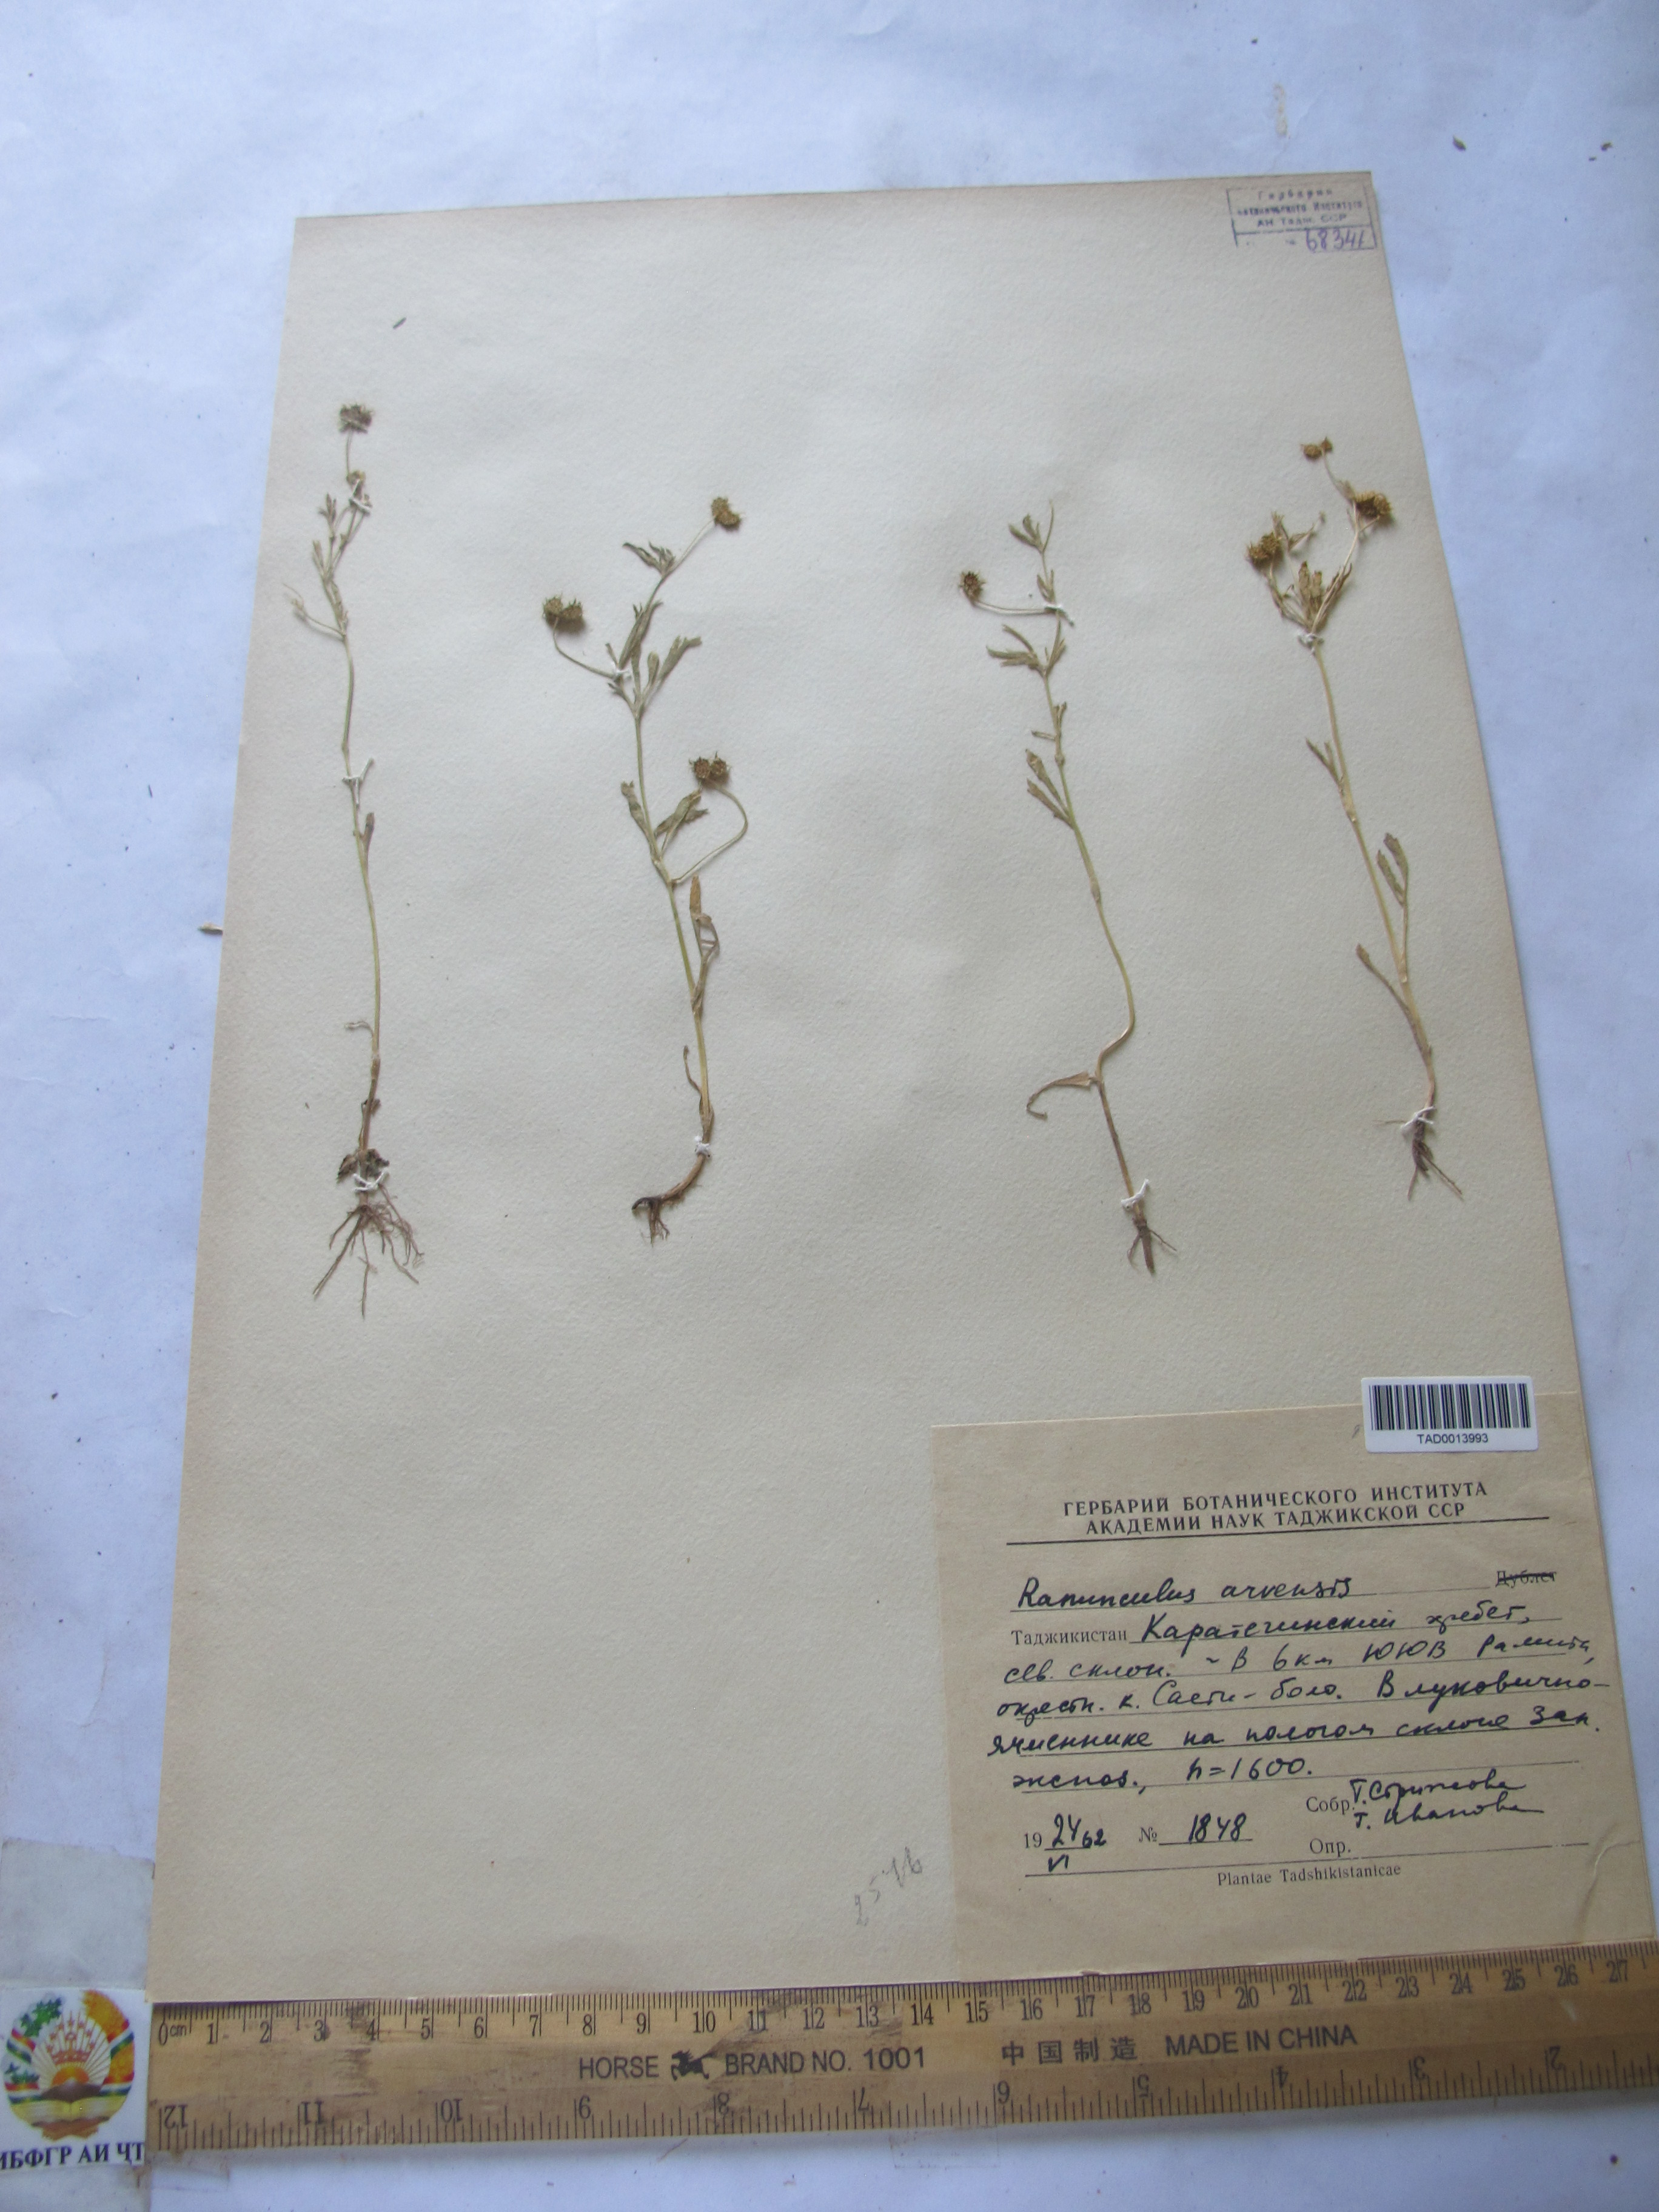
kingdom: Plantae
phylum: Tracheophyta
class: Magnoliopsida
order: Ranunculales
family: Ranunculaceae
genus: Ranunculus
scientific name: Ranunculus arvensis
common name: Corn buttercup
